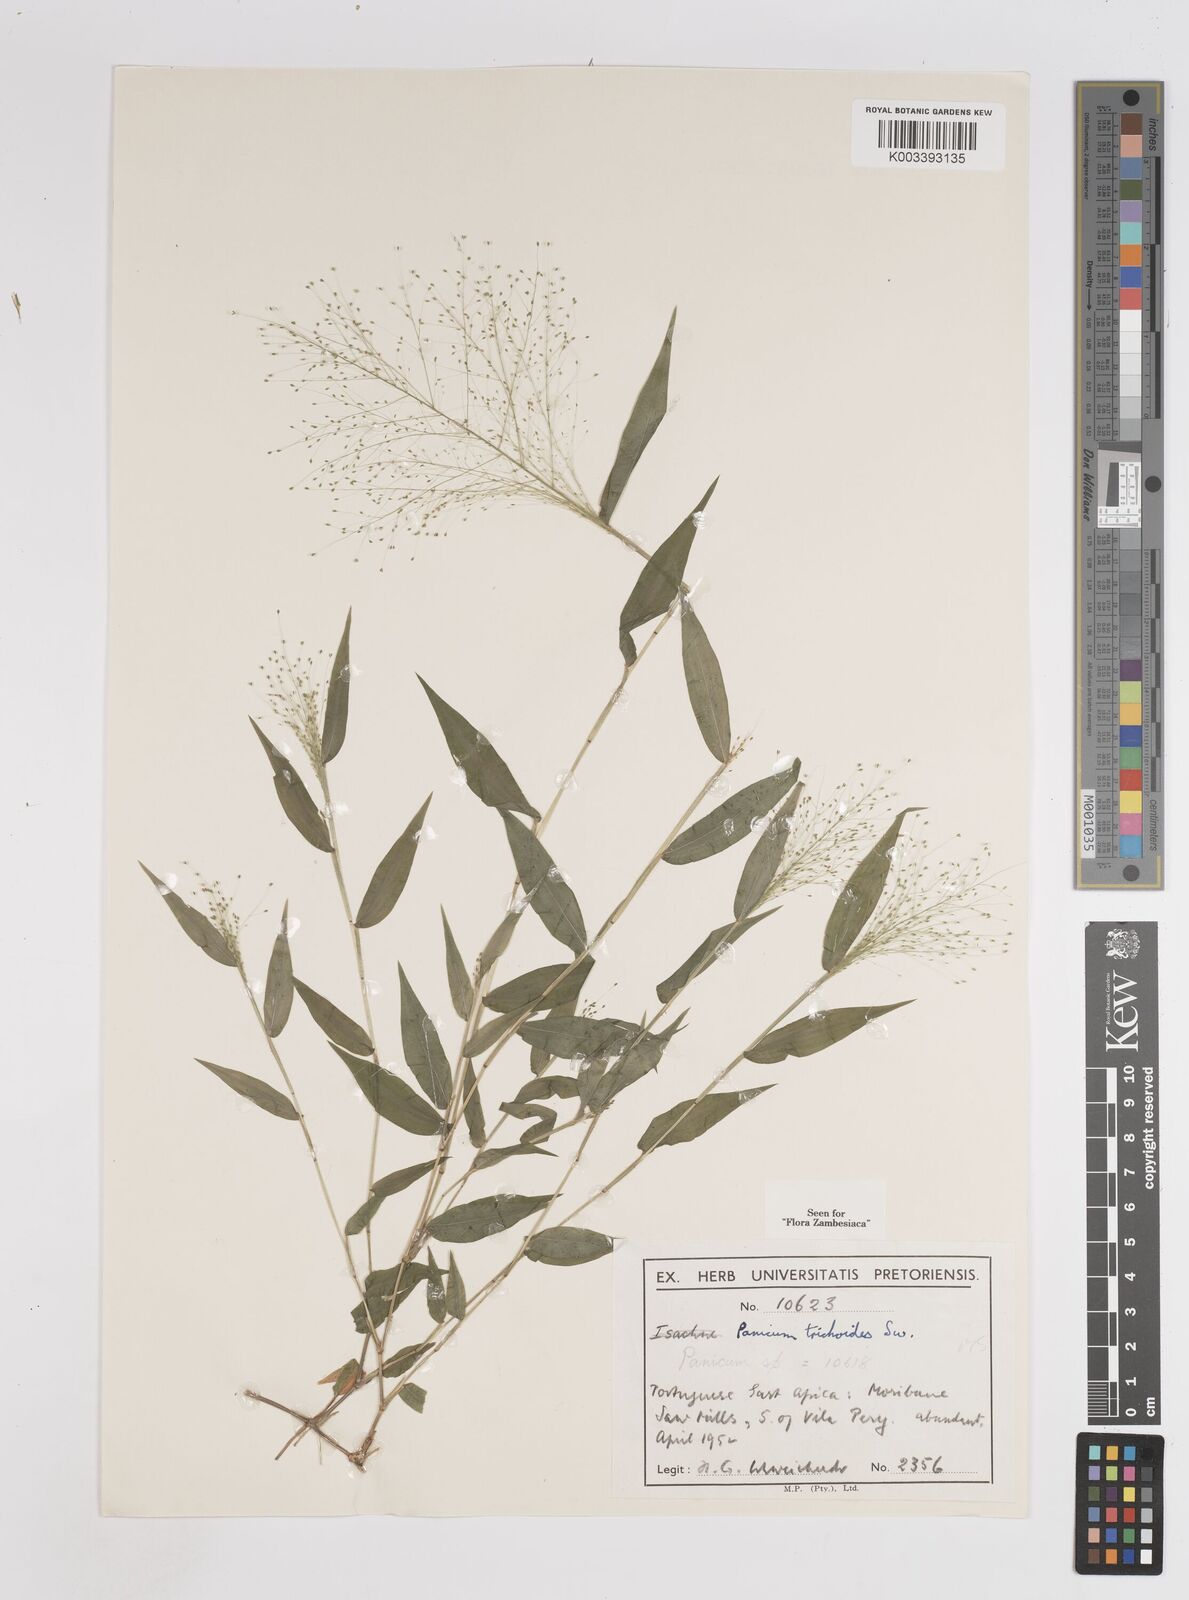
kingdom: Plantae
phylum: Tracheophyta
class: Liliopsida
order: Poales
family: Poaceae
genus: Panicum
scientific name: Panicum trichoides
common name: Tickle grass
